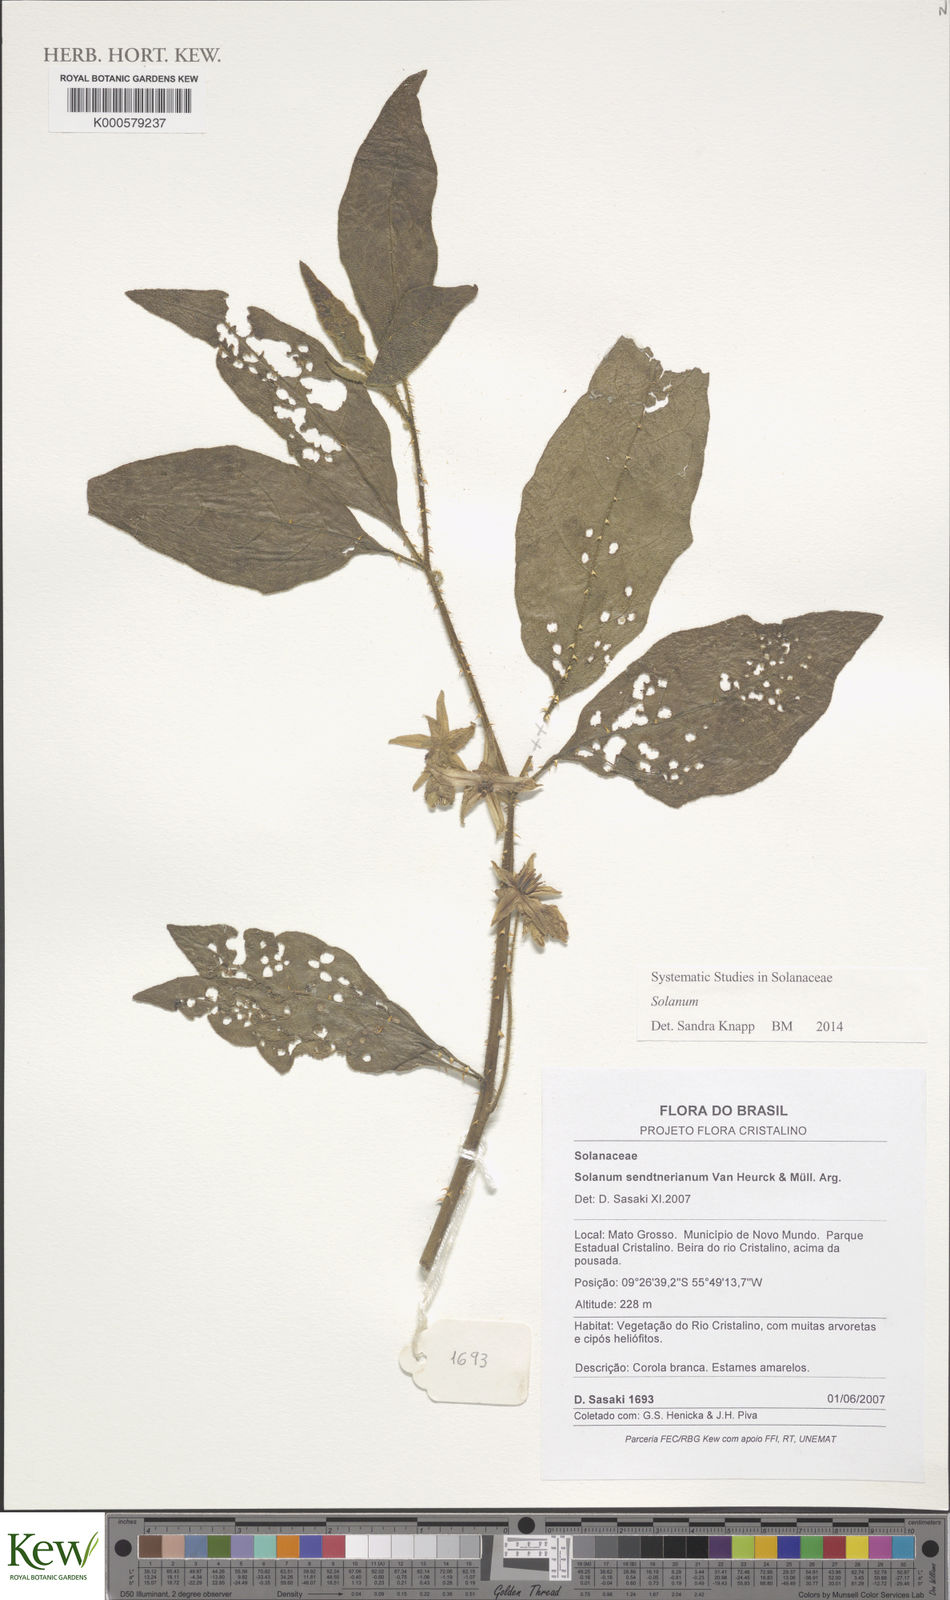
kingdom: Plantae
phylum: Tracheophyta
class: Magnoliopsida
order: Solanales
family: Solanaceae
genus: Solanum
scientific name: Solanum
